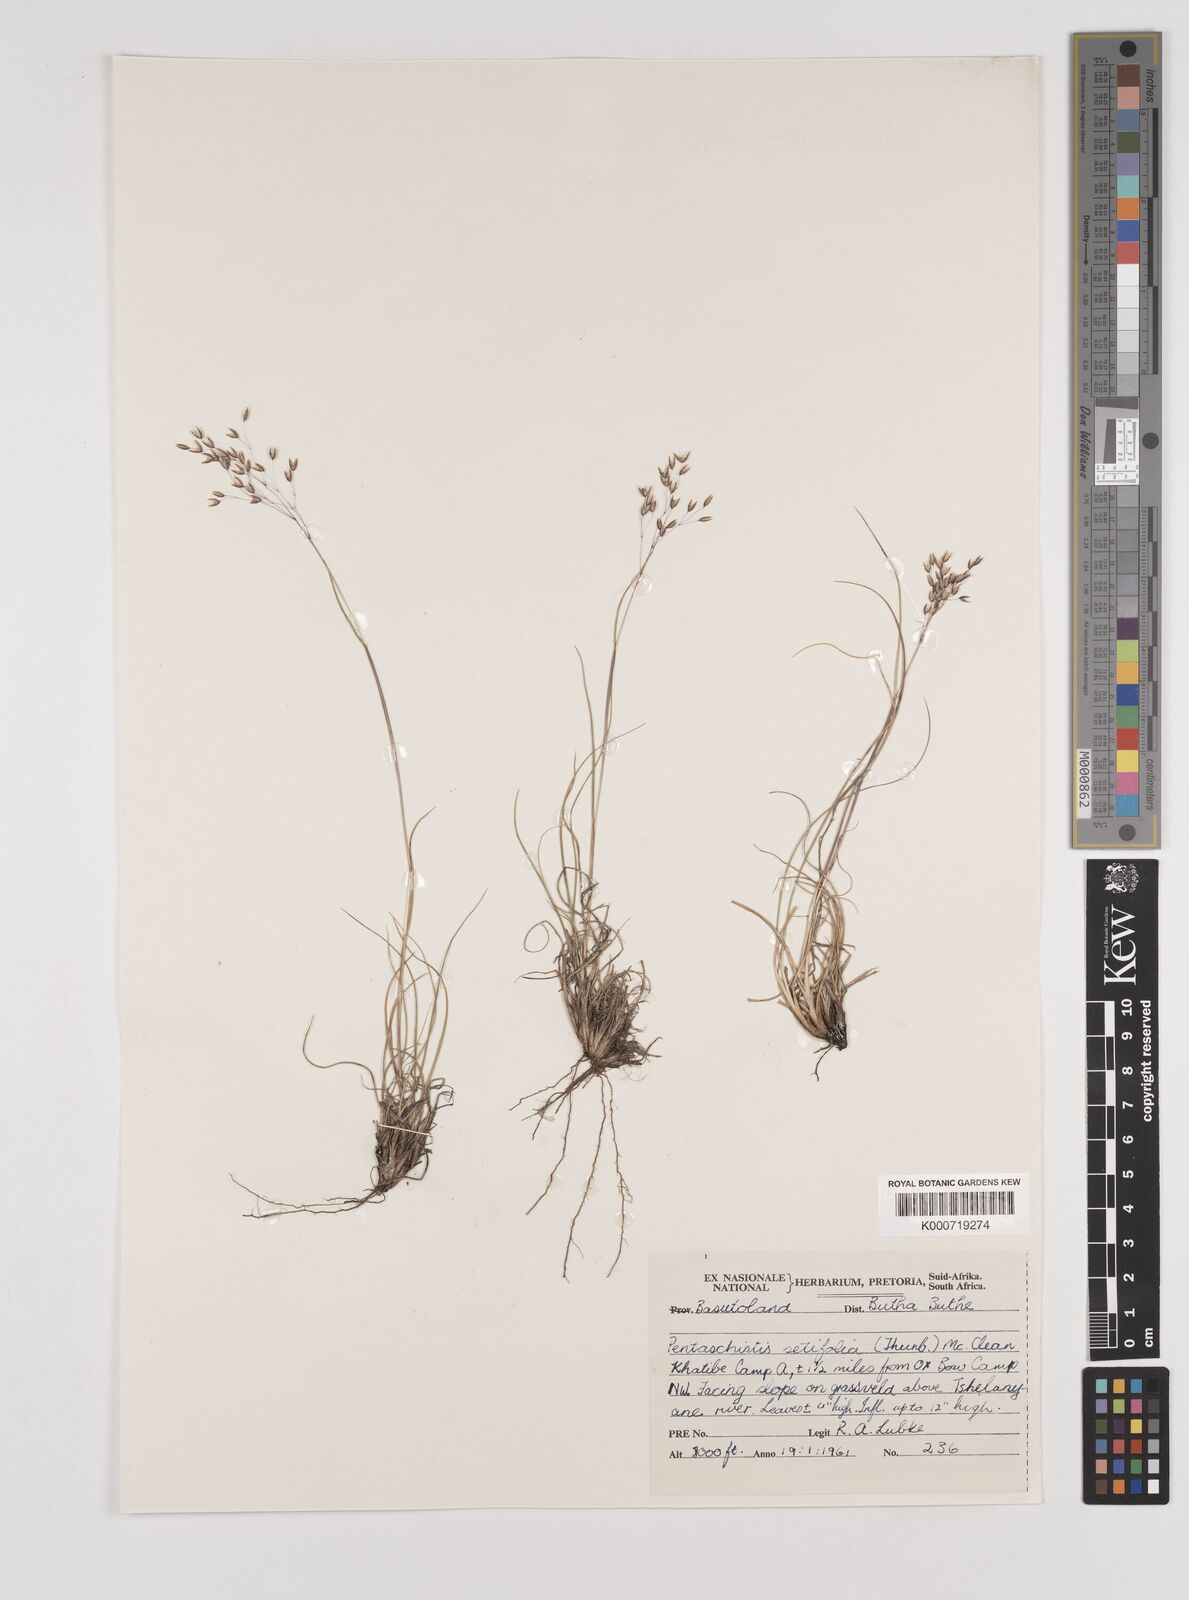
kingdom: Plantae
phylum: Tracheophyta
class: Liliopsida
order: Poales
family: Poaceae
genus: Pentameris
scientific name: Pentameris setifolia
